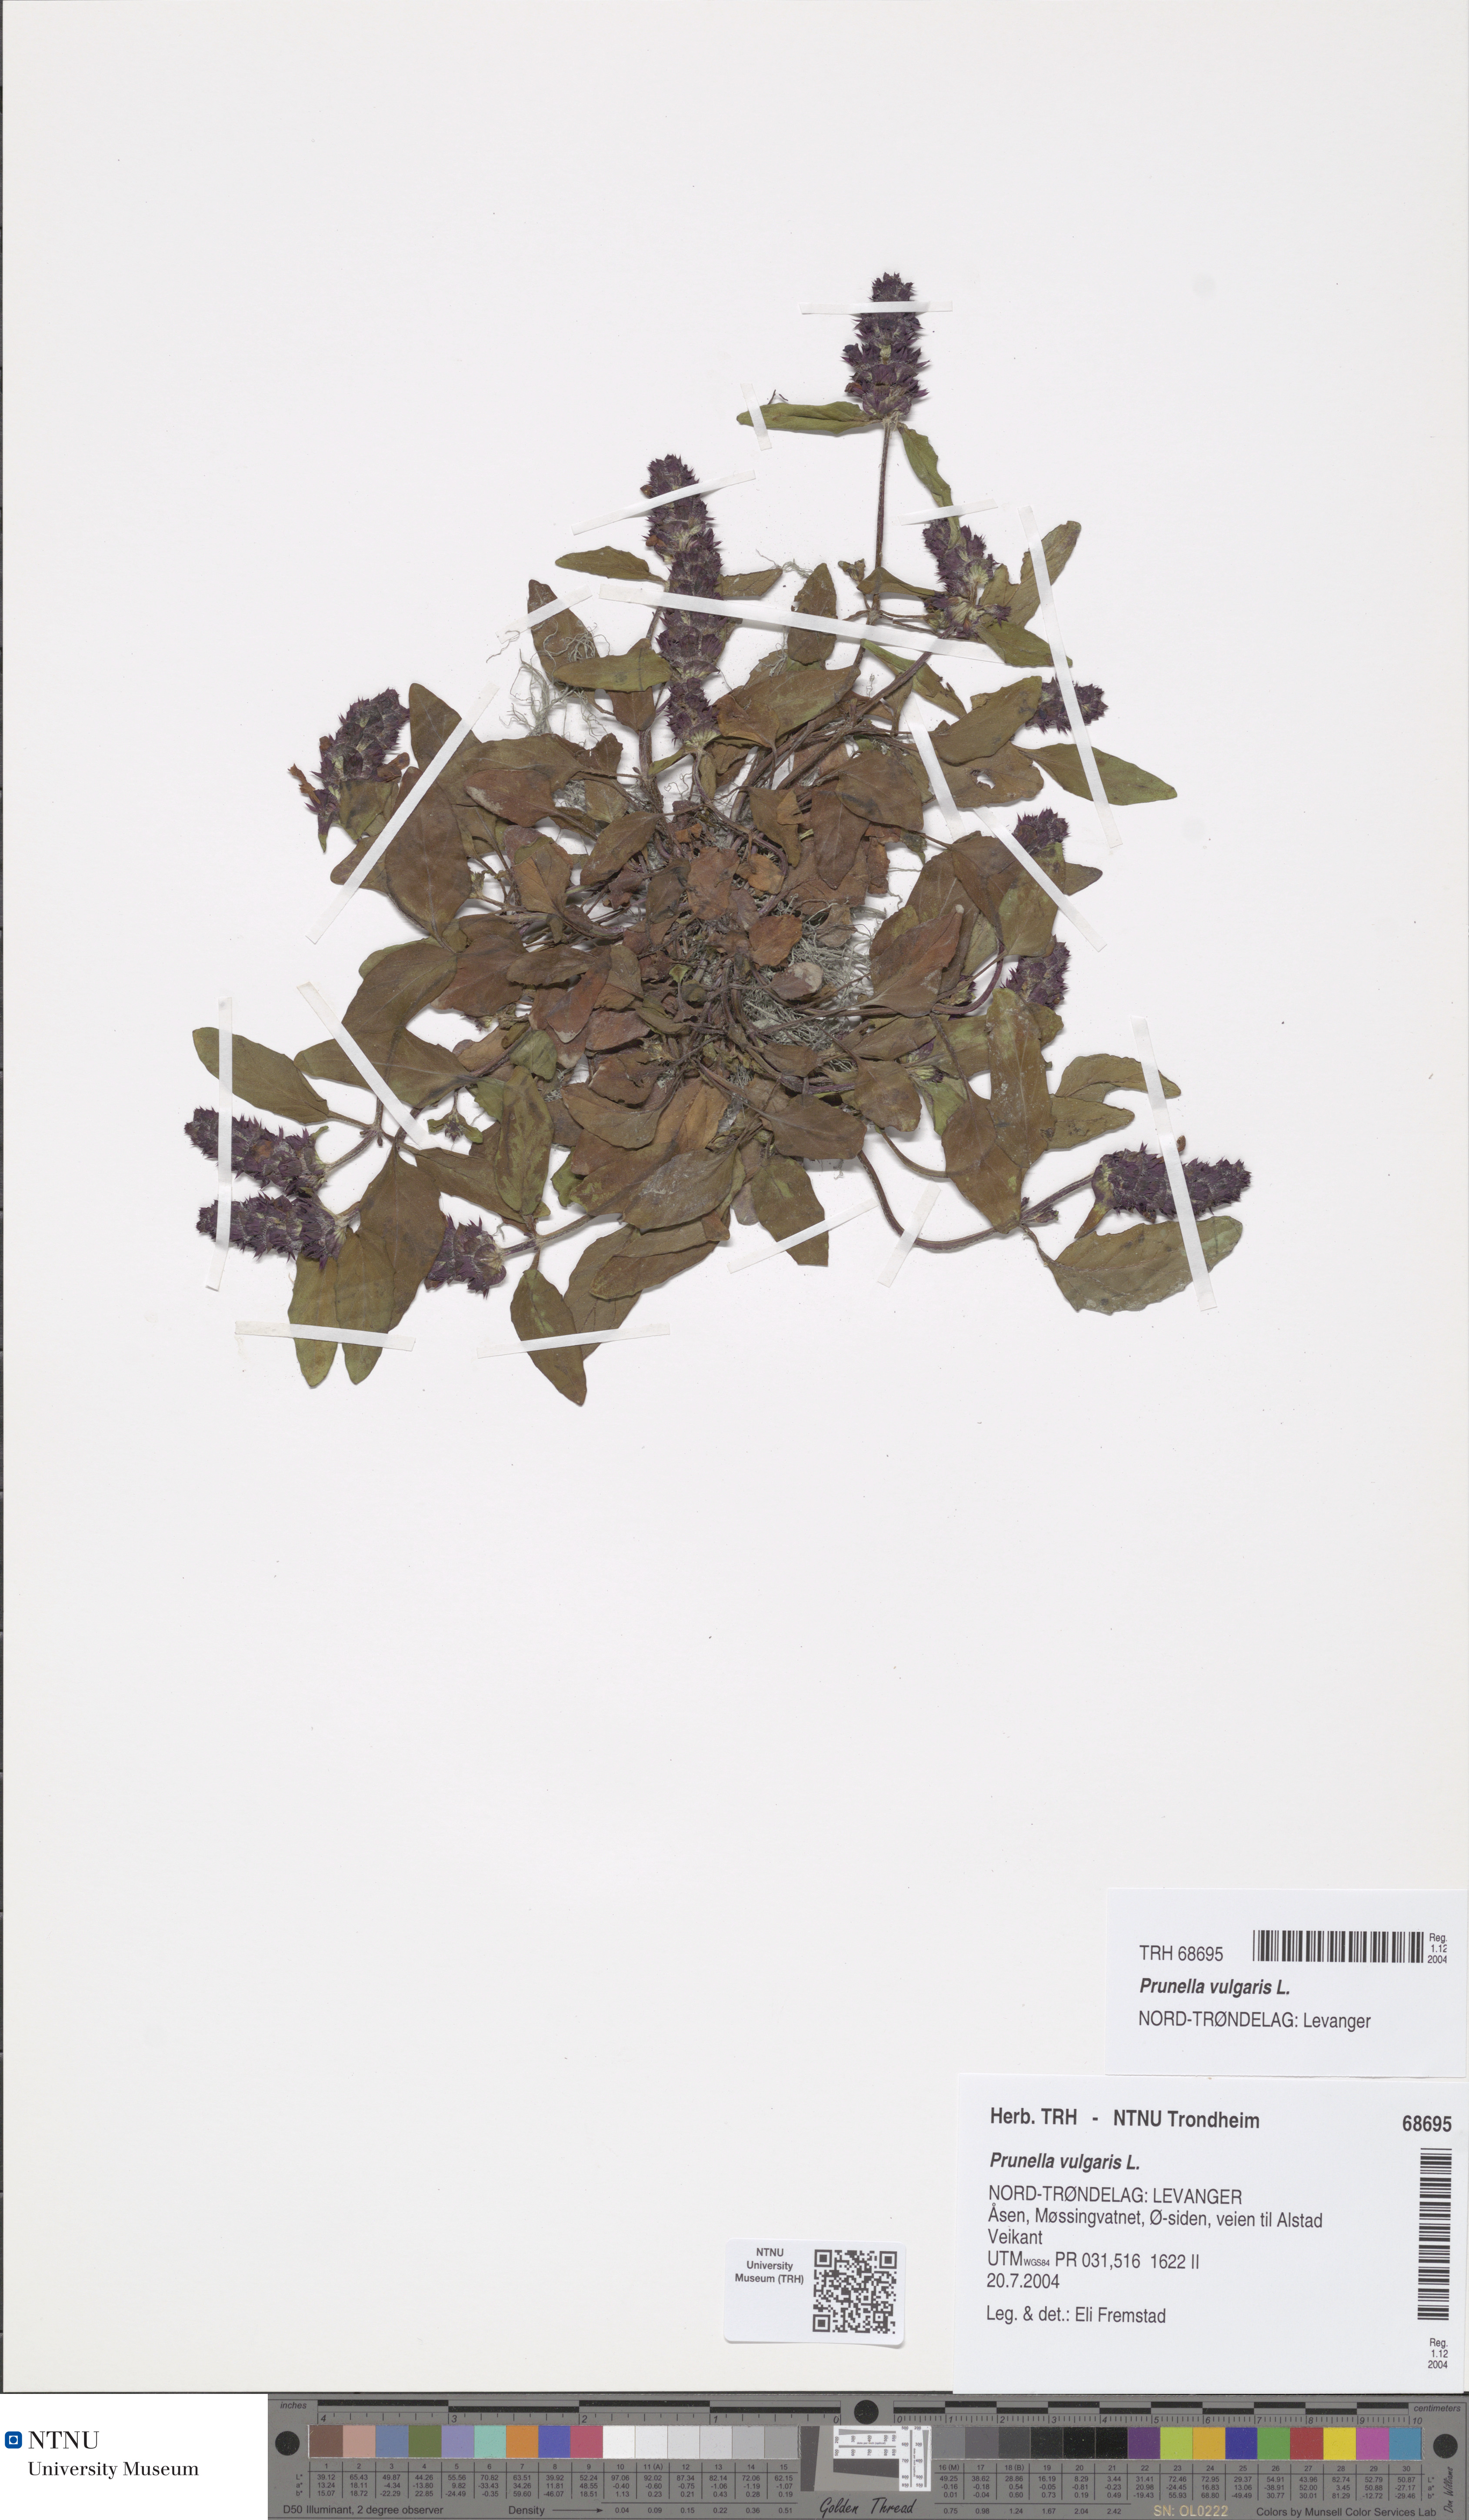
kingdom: Plantae
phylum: Tracheophyta
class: Magnoliopsida
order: Lamiales
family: Lamiaceae
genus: Prunella
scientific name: Prunella vulgaris
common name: Heal-all
